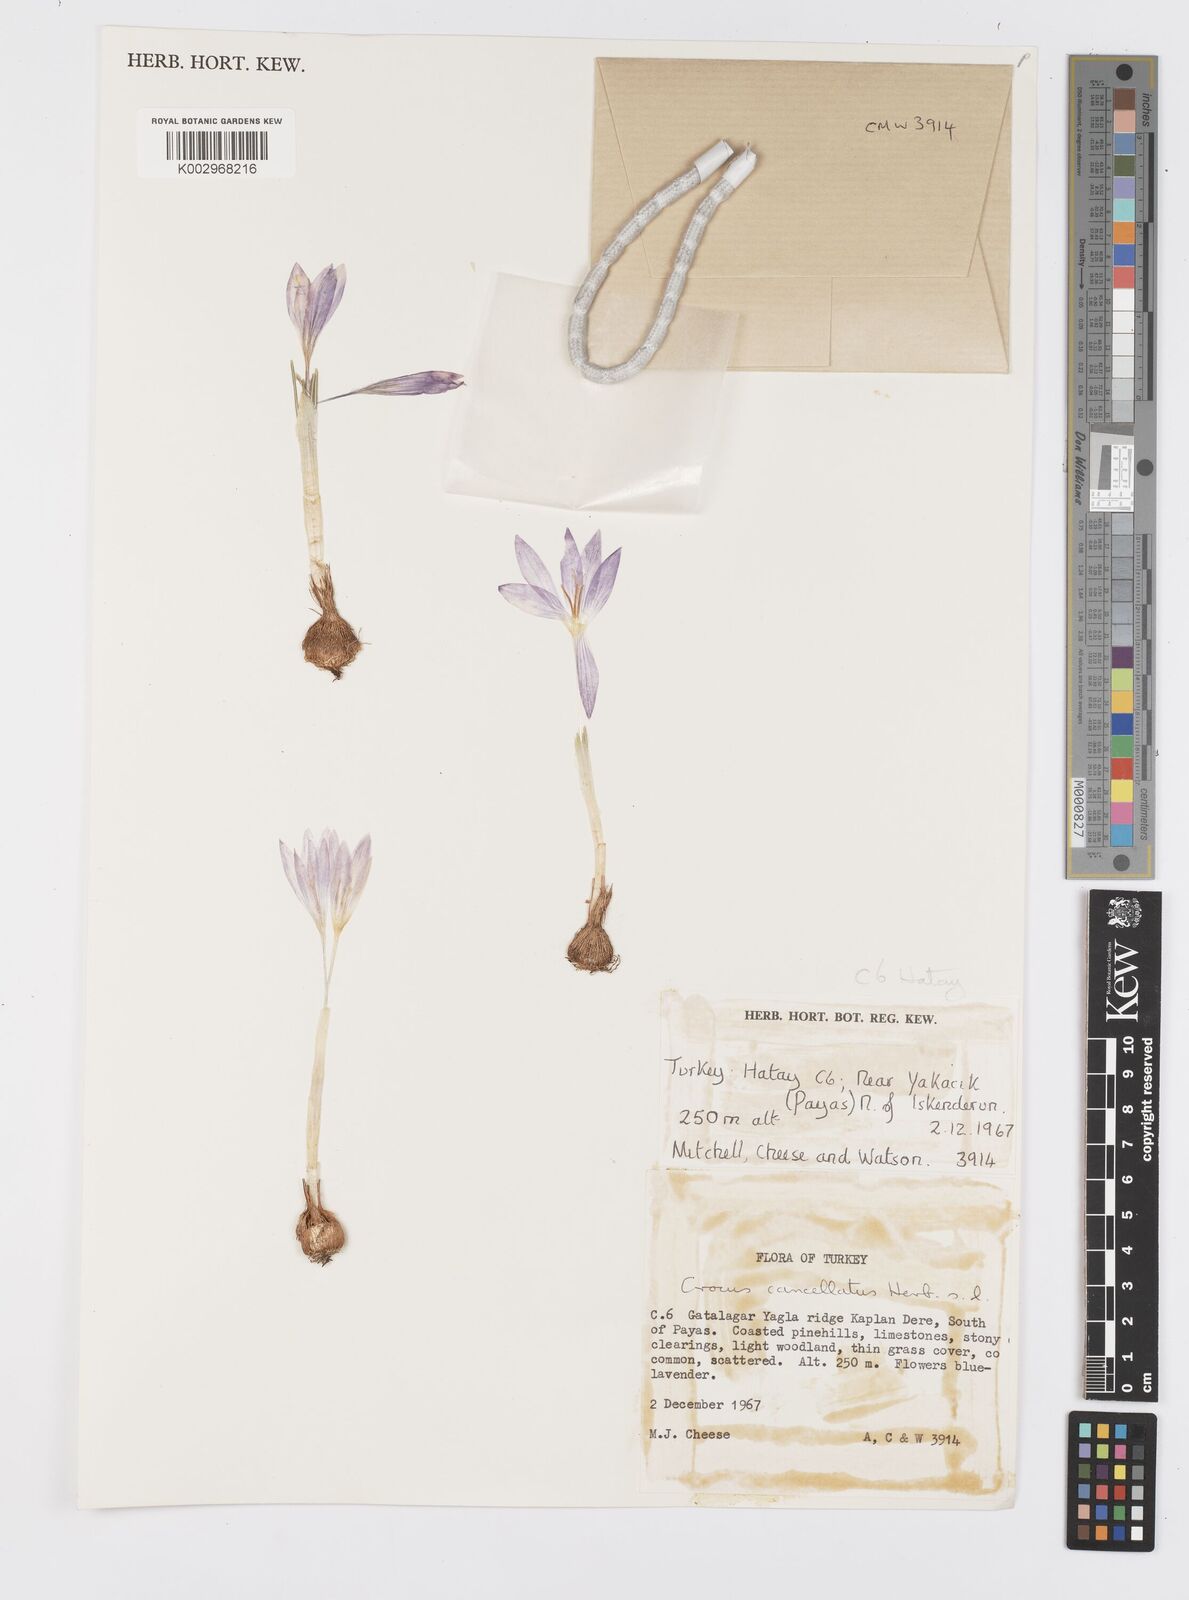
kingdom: Plantae
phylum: Tracheophyta
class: Liliopsida
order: Asparagales
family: Iridaceae
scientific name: Iridaceae
